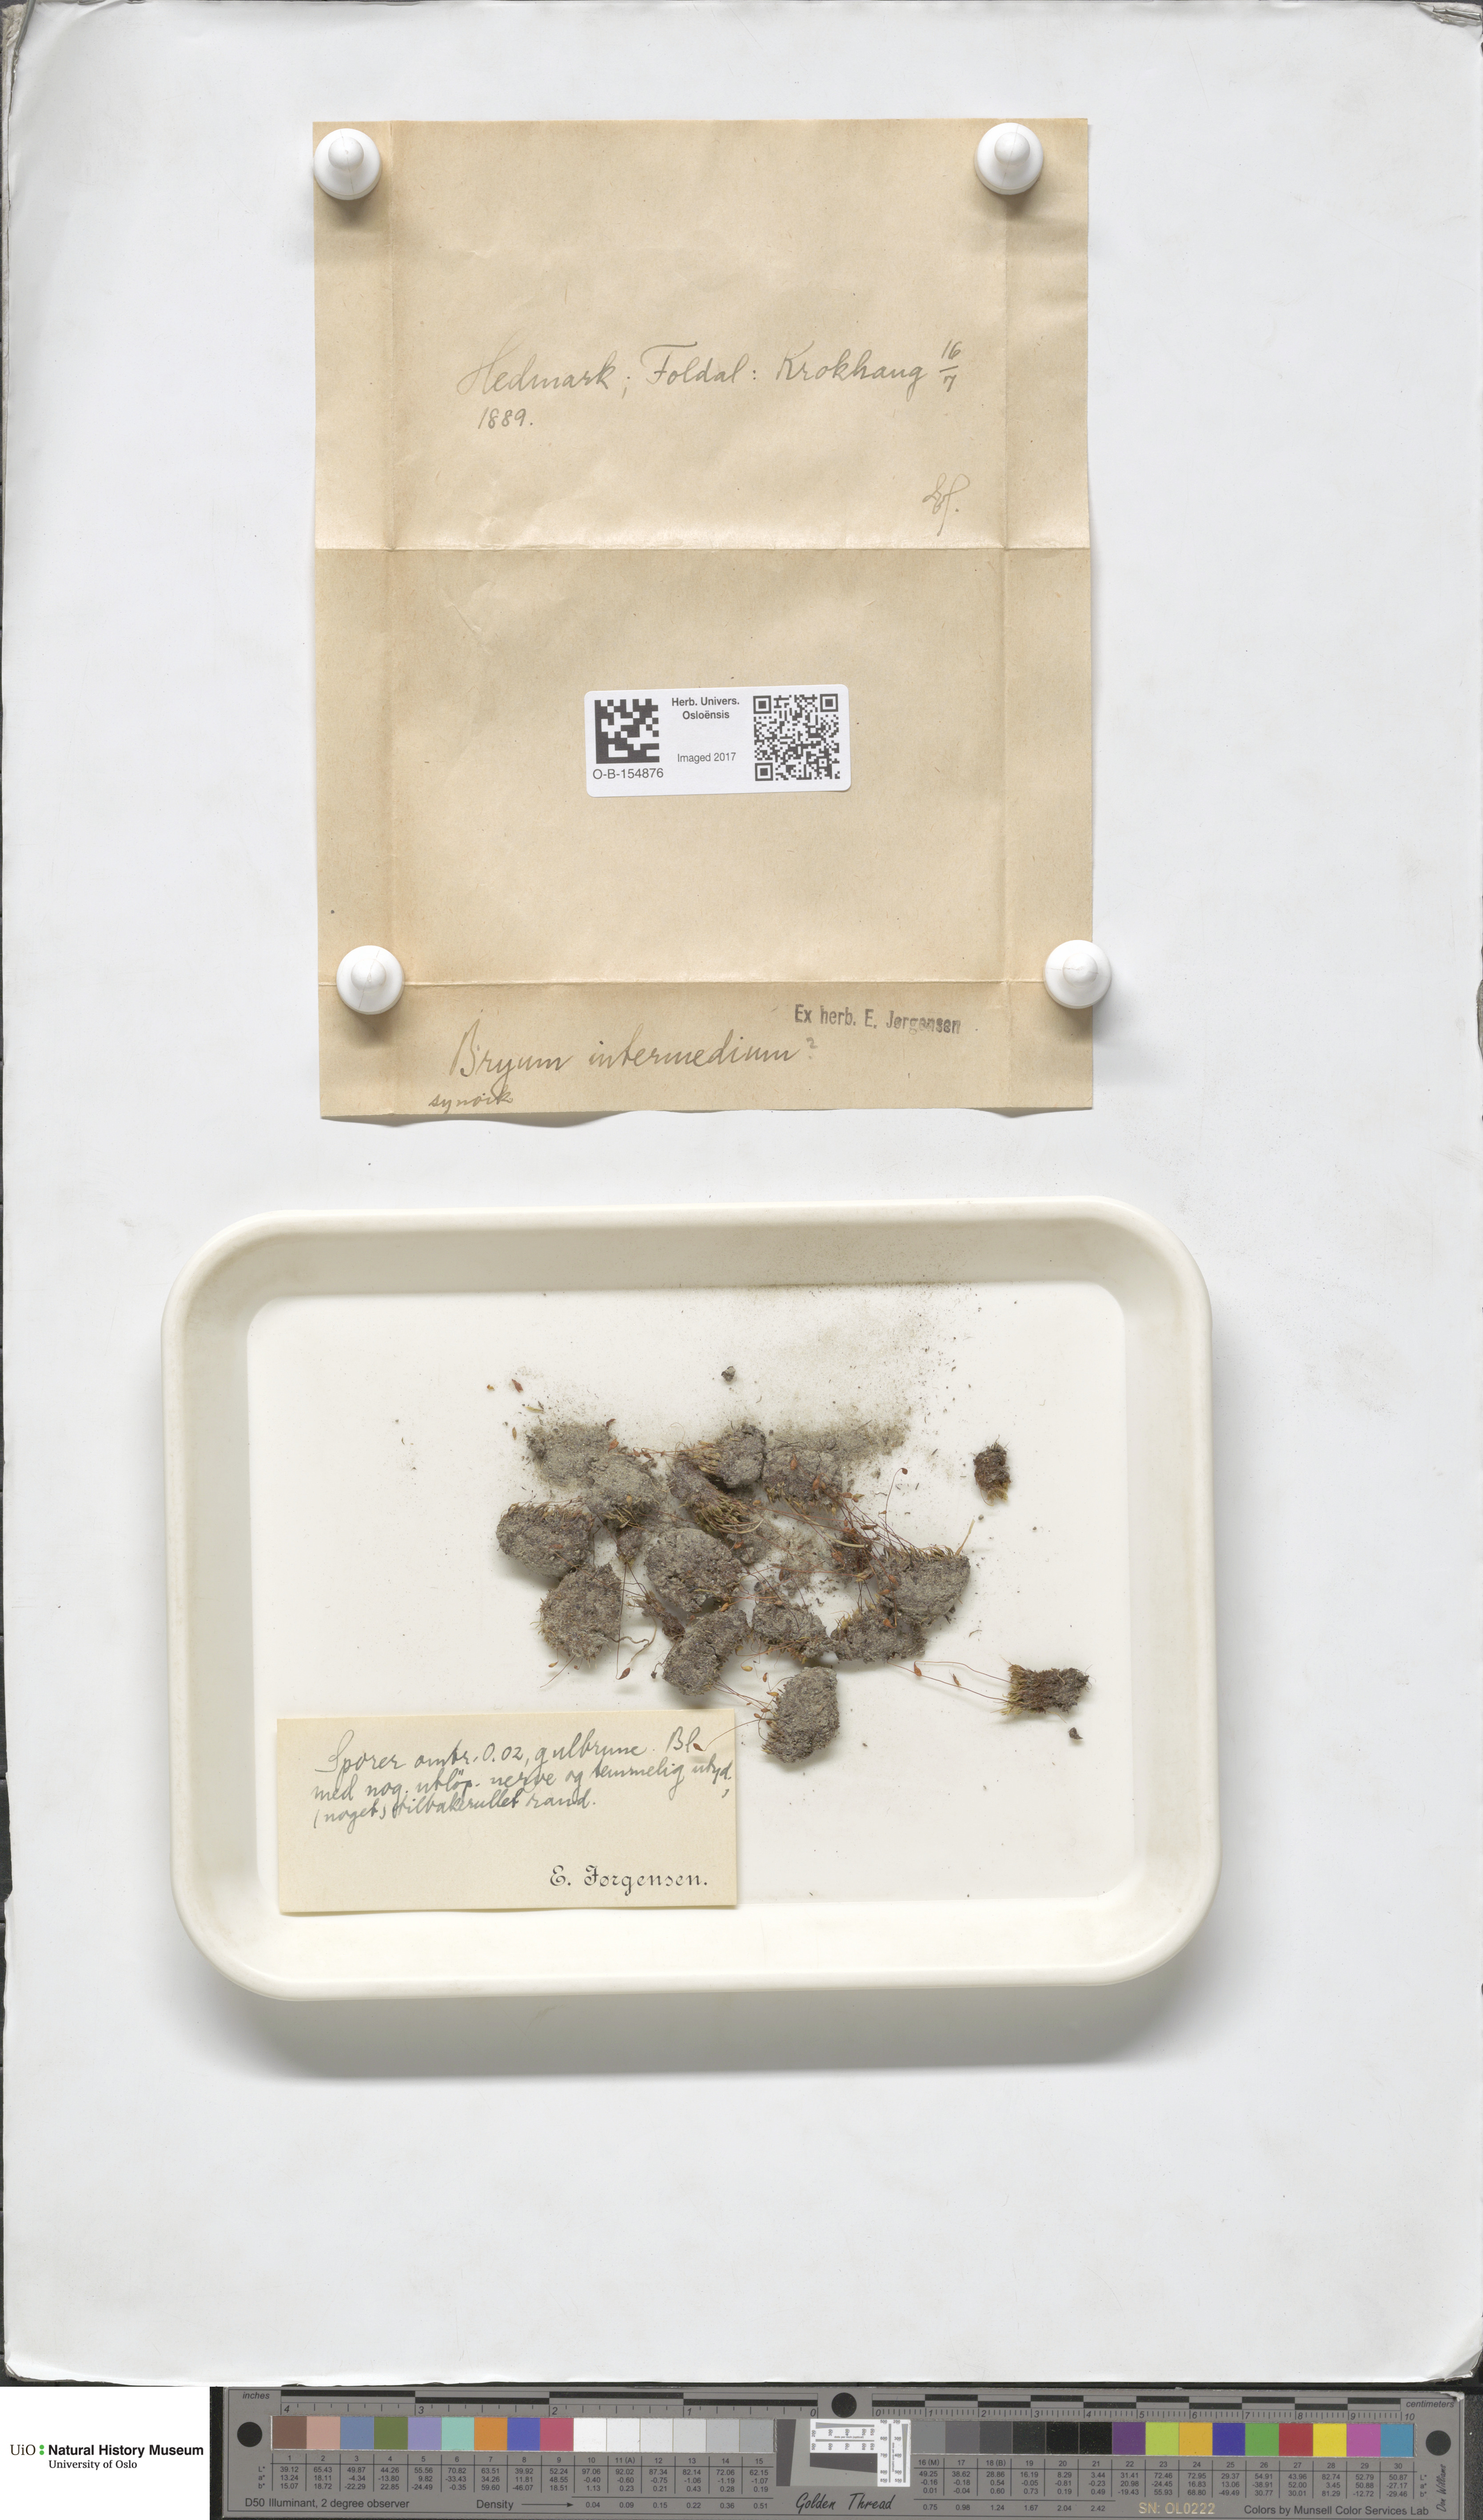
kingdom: Plantae
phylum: Bryophyta
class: Bryopsida
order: Bryales
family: Bryaceae
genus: Ptychostomum
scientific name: Ptychostomum intermedium
